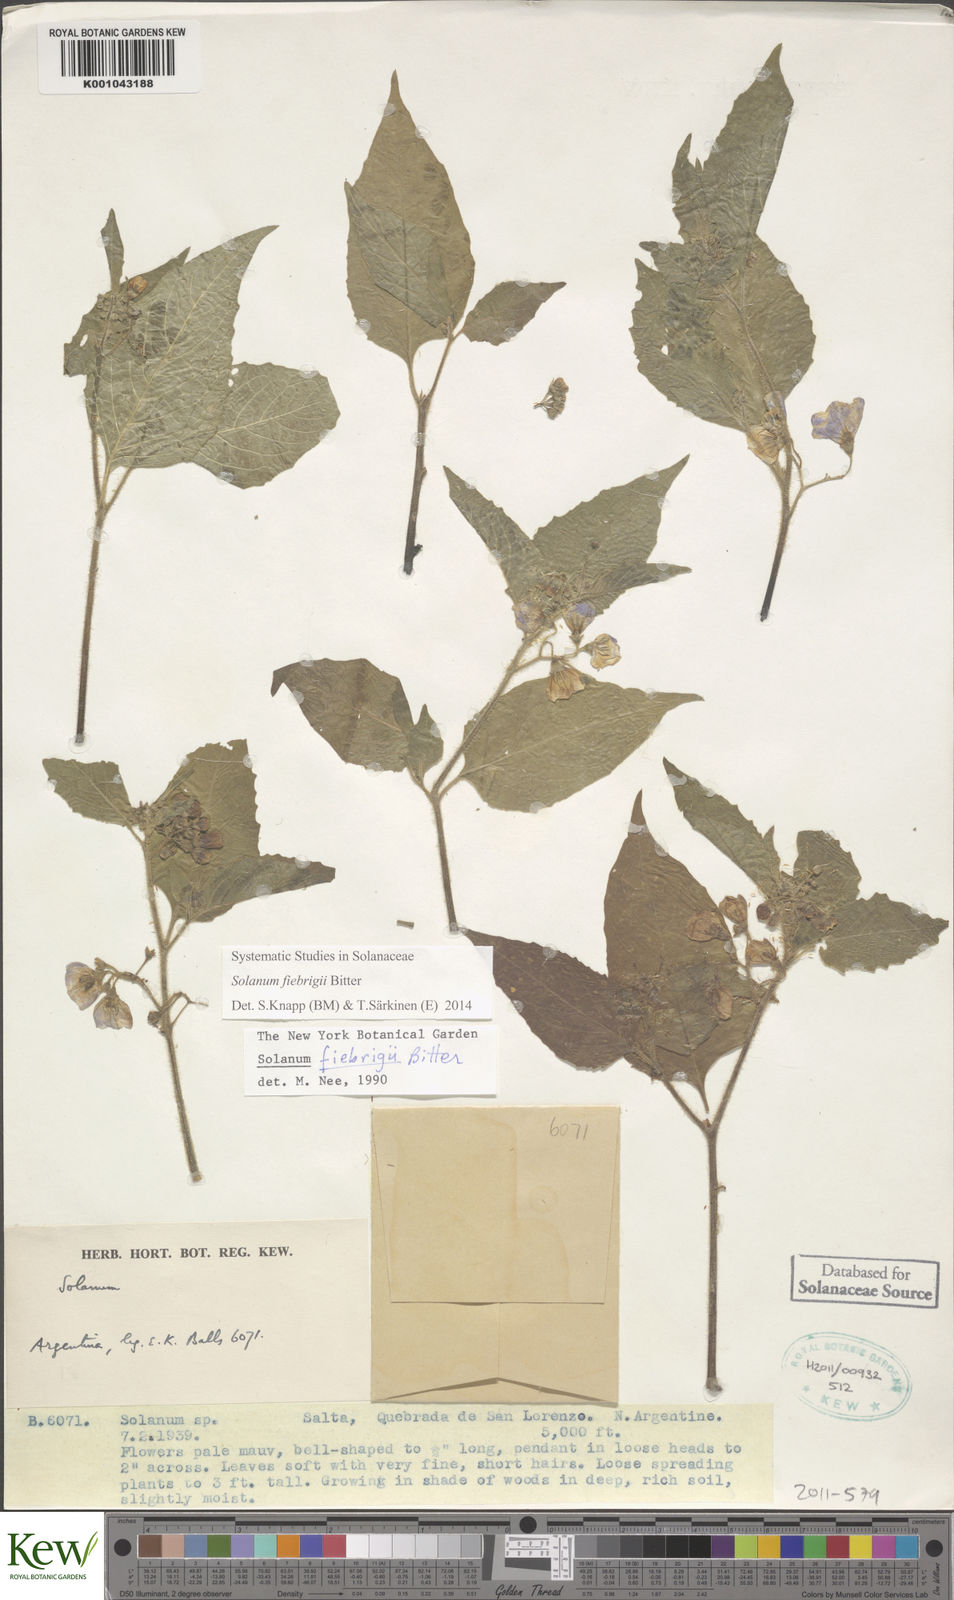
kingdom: Plantae
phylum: Tracheophyta
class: Magnoliopsida
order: Solanales
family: Solanaceae
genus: Solanum
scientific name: Solanum fiebrigii
